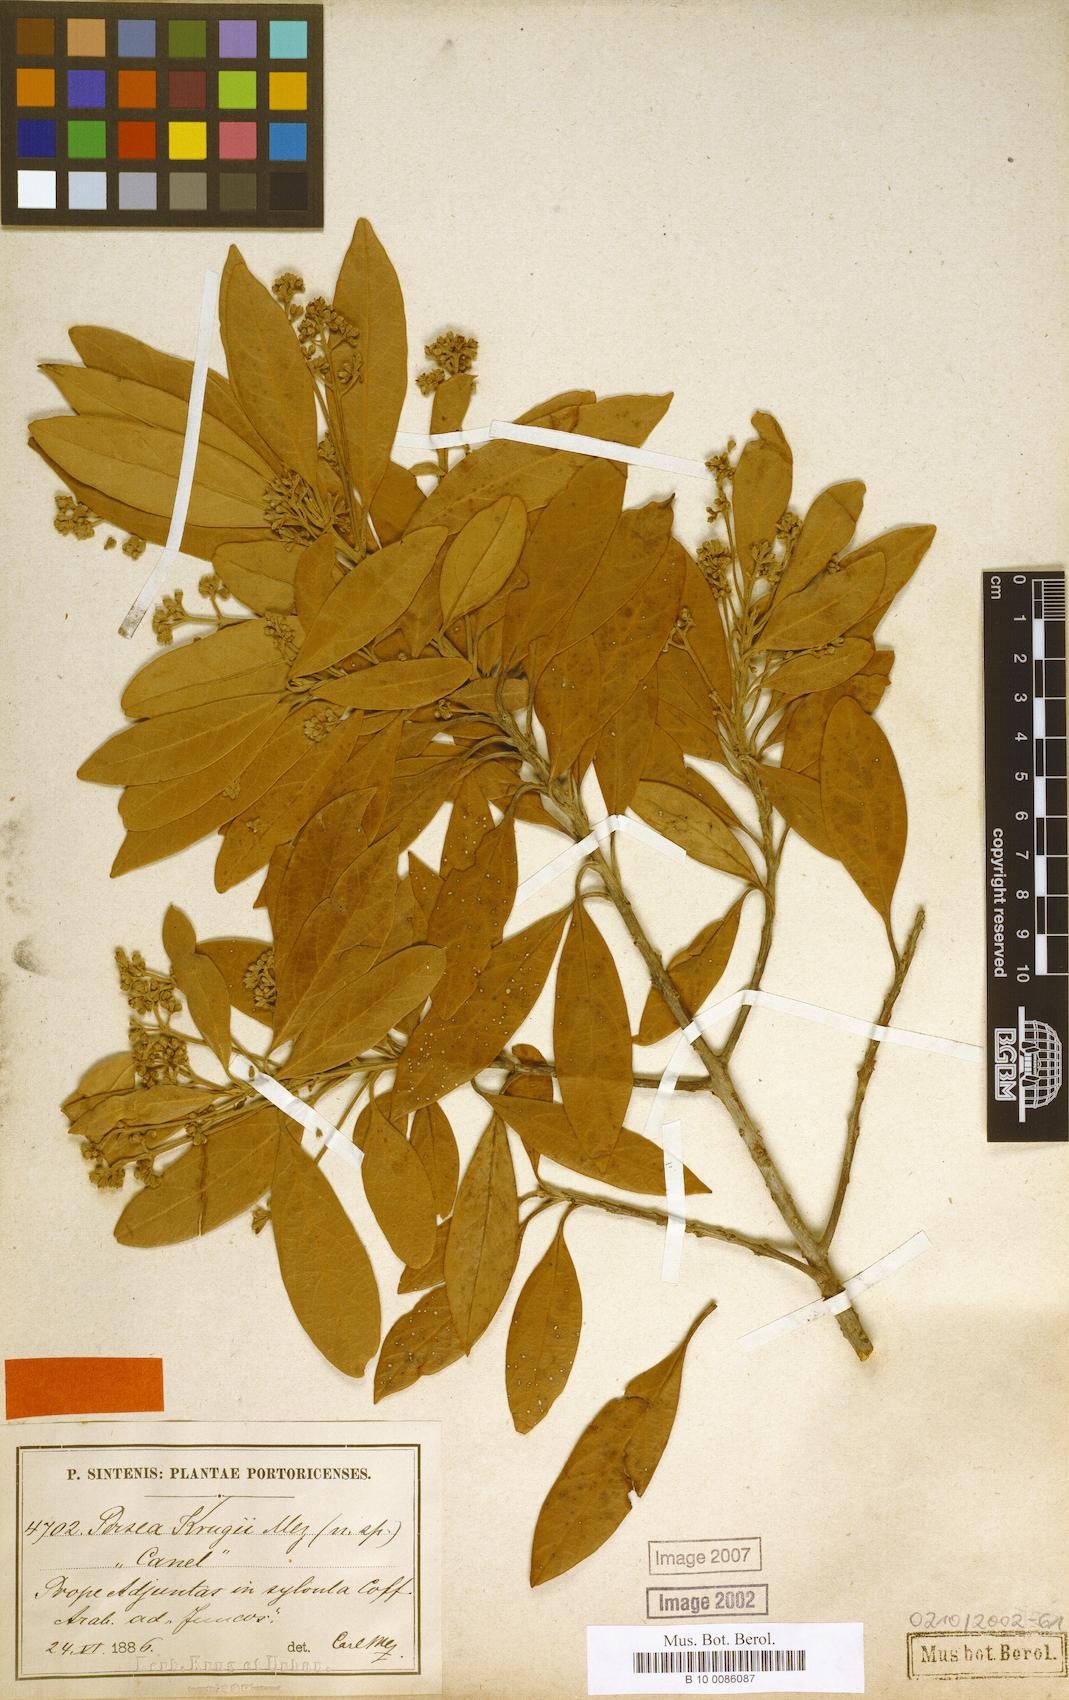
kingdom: Plantae
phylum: Tracheophyta
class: Magnoliopsida
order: Laurales
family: Lauraceae
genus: Persea
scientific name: Persea krugii
